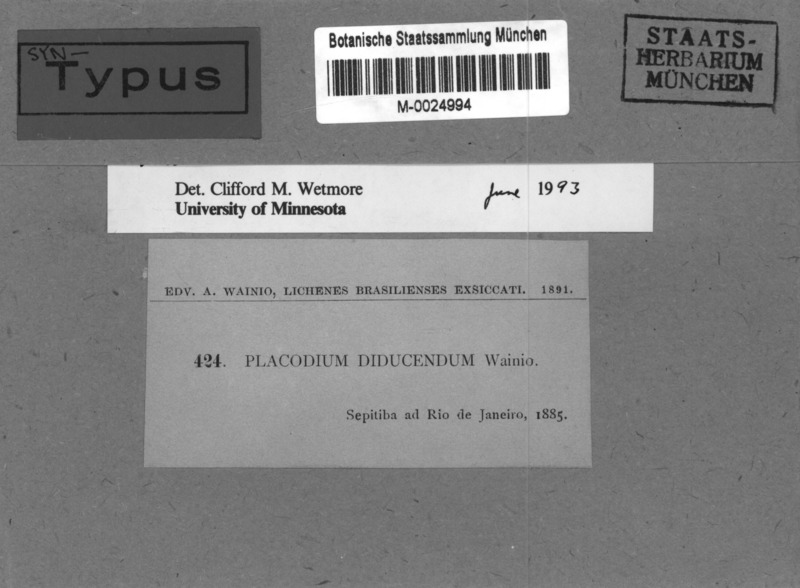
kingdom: Fungi
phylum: Ascomycota
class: Lecanoromycetes
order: Teloschistales
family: Teloschistaceae
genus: Caloplaca
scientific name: Caloplaca
